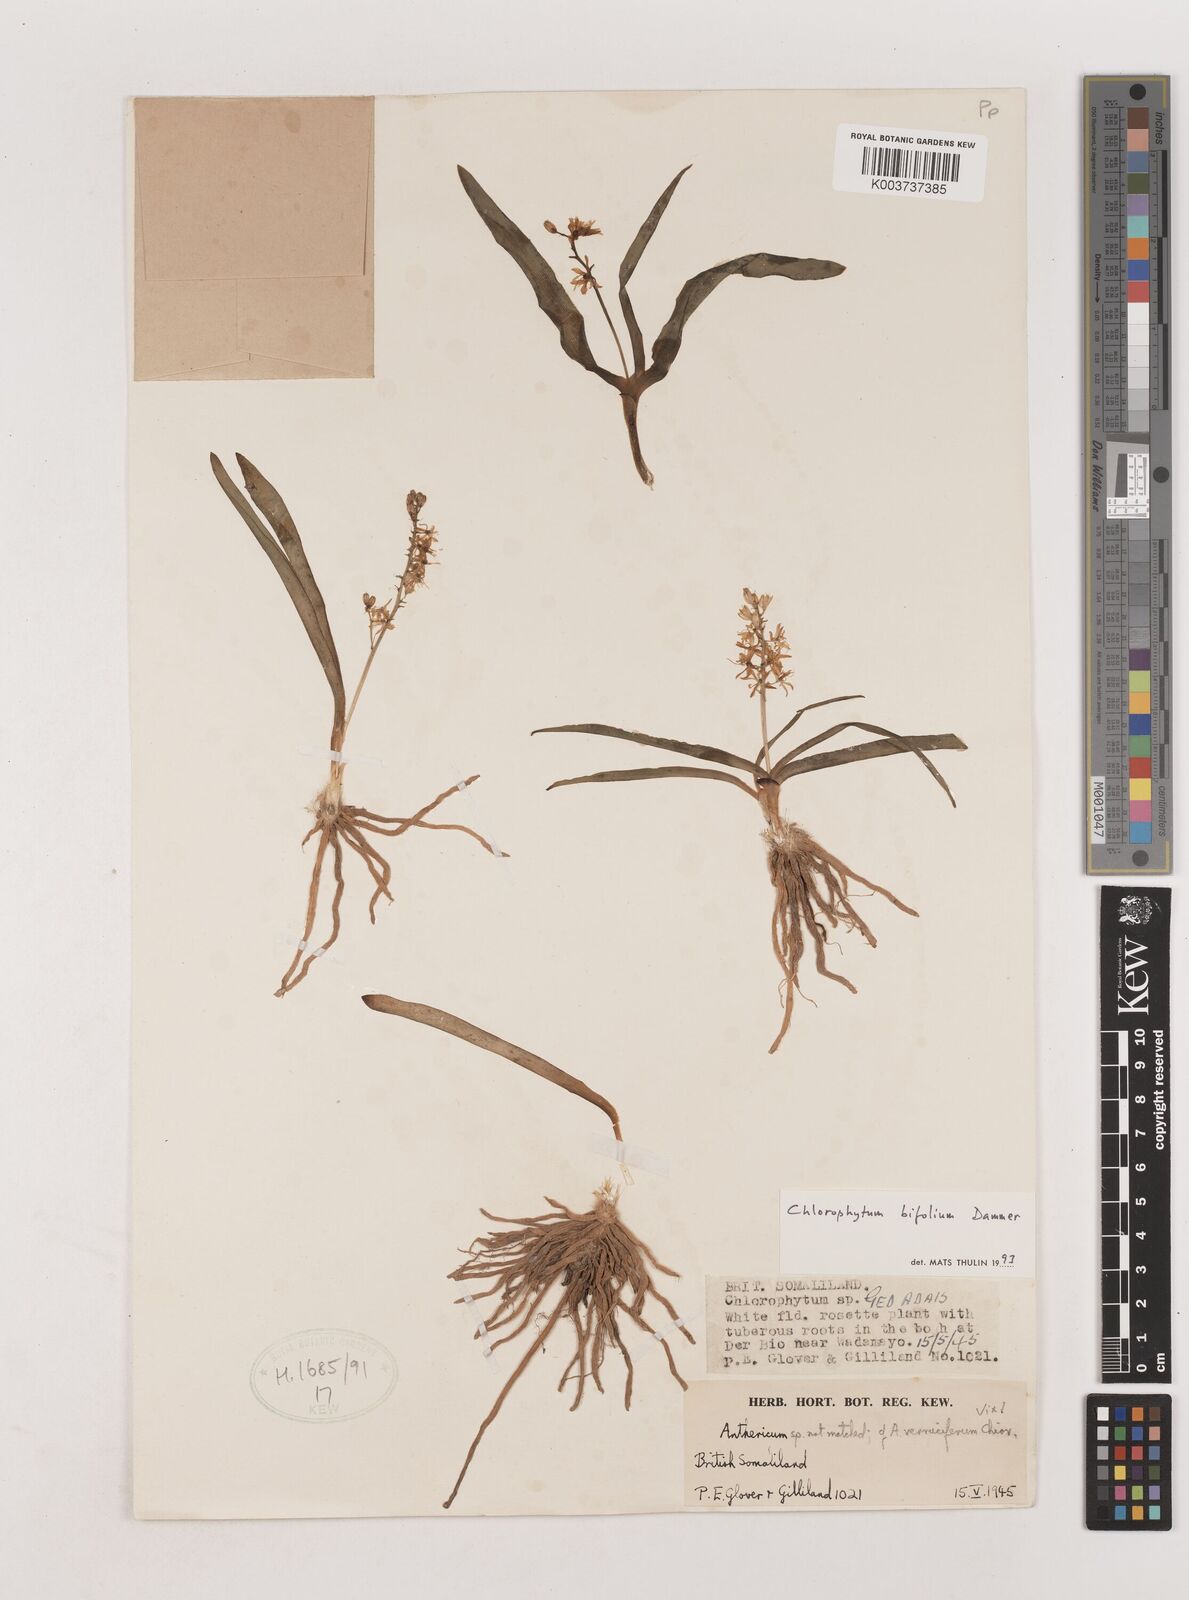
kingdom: Plantae
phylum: Tracheophyta
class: Liliopsida
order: Asparagales
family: Asparagaceae
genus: Chlorophytum
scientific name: Chlorophytum bifolium
